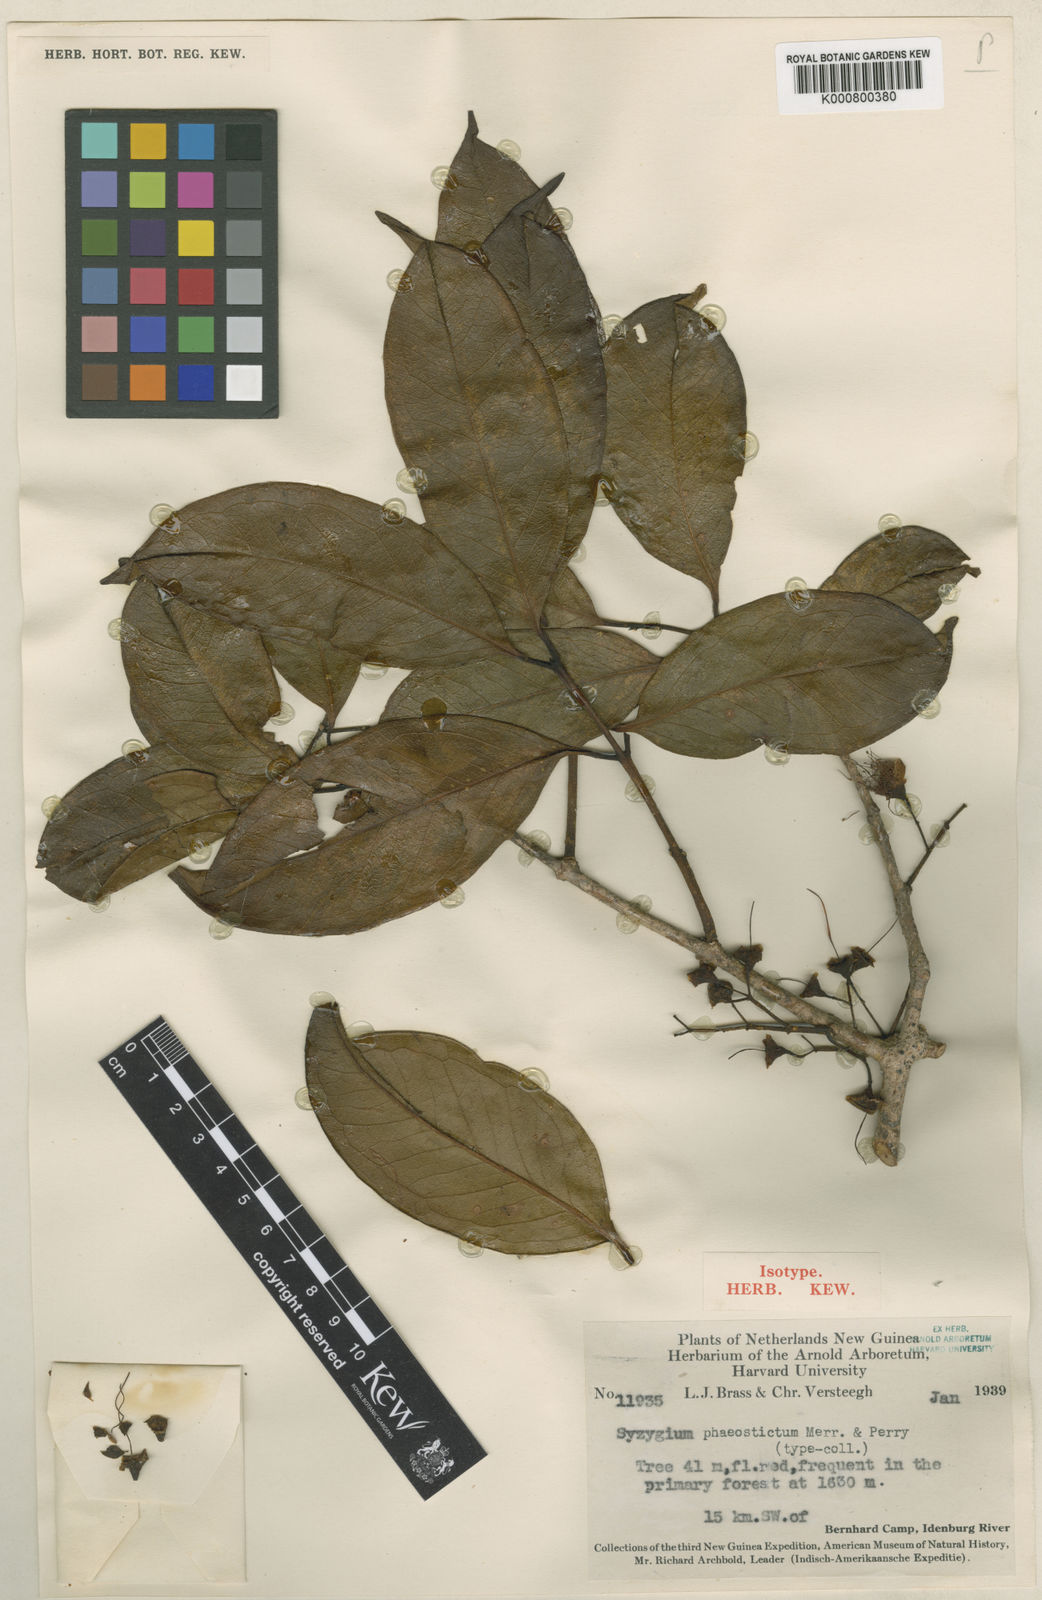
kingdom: Plantae
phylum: Tracheophyta
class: Magnoliopsida
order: Myrtales
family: Myrtaceae
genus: Syzygium
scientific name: Syzygium phaeostictum
